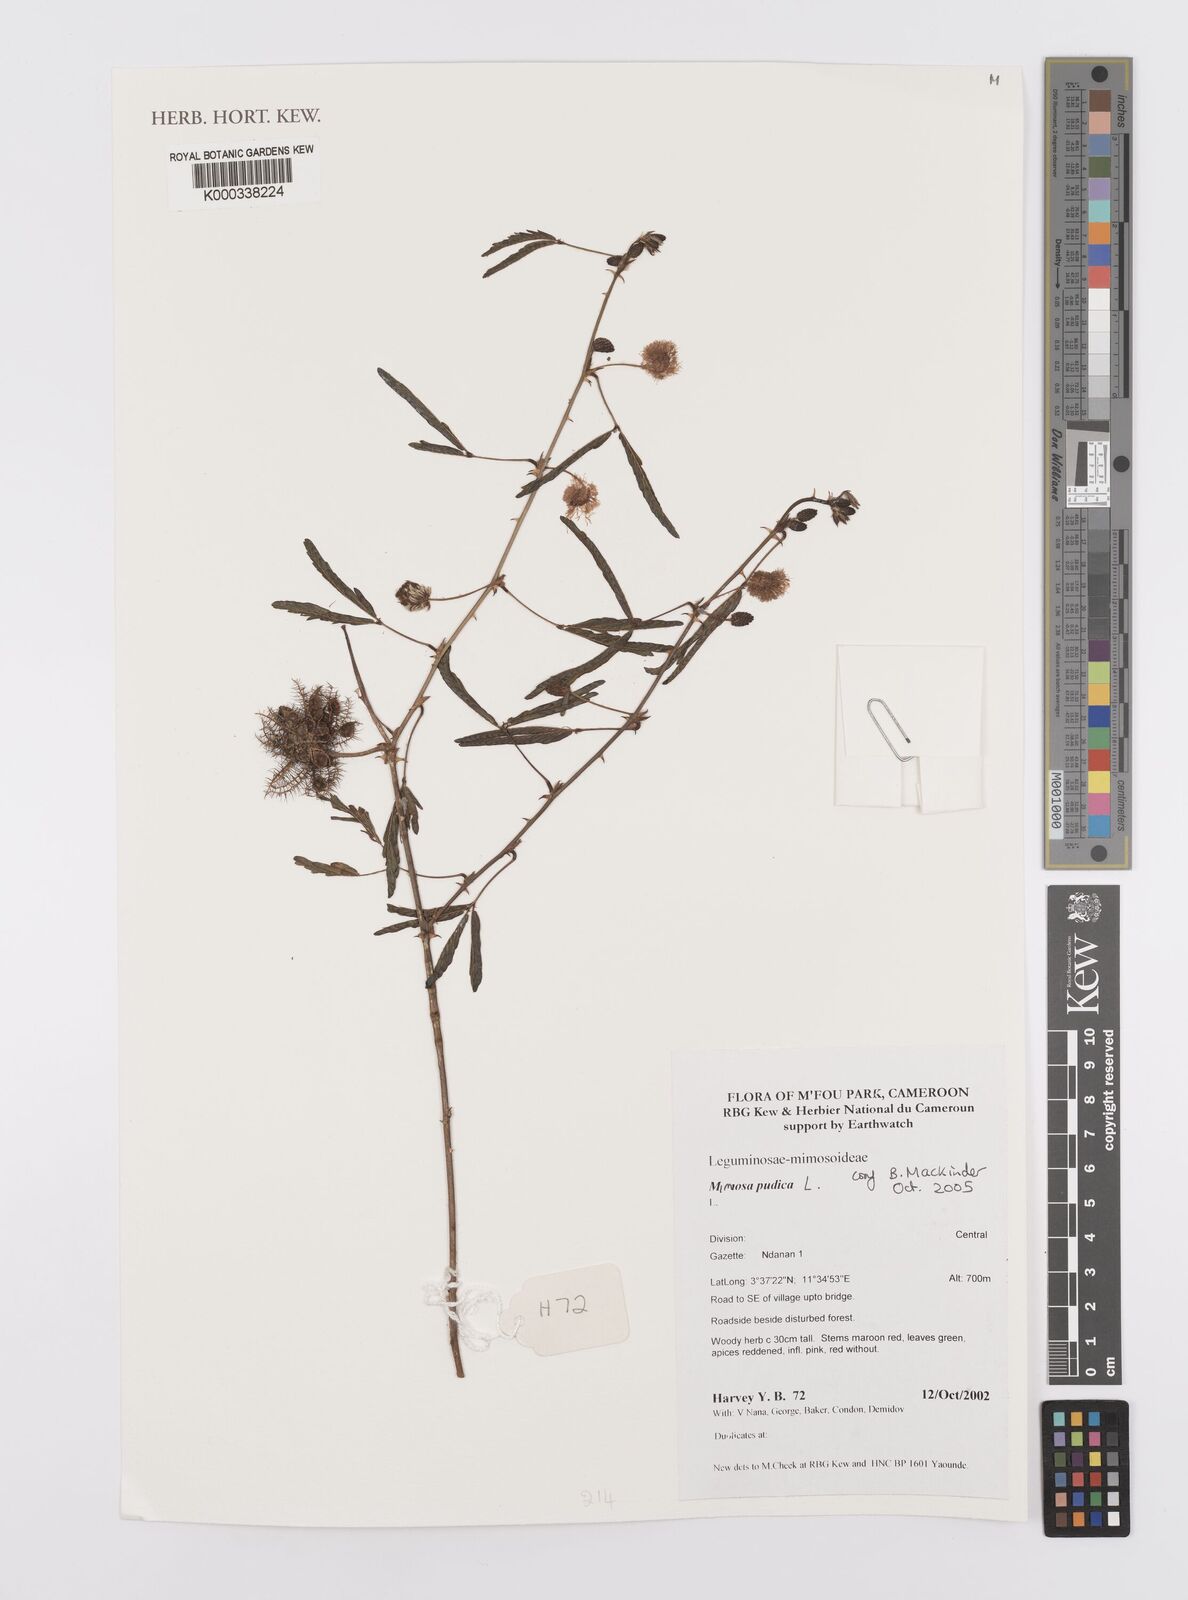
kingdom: Plantae
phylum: Tracheophyta
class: Magnoliopsida
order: Fabales
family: Fabaceae
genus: Mimosa
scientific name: Mimosa pudica
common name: Sensitive plant
